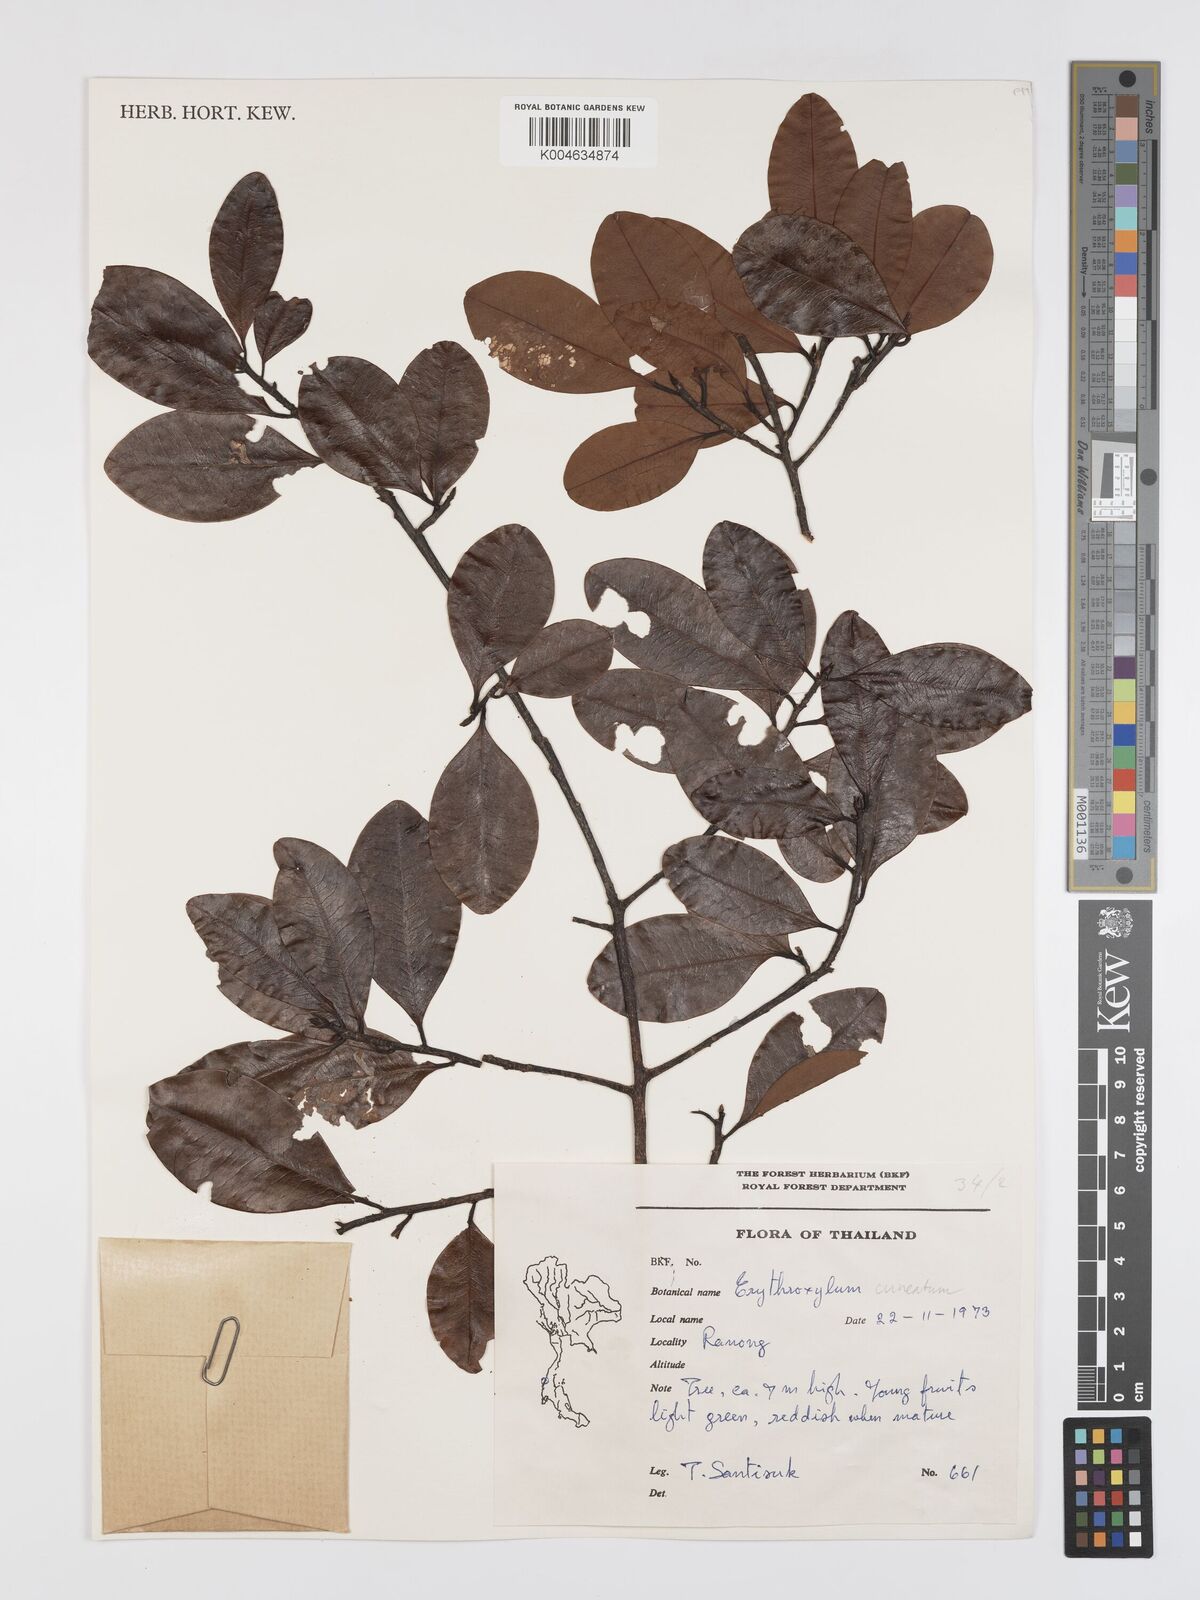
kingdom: Plantae
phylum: Tracheophyta
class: Magnoliopsida
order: Malpighiales
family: Erythroxylaceae
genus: Erythroxylum
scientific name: Erythroxylum
